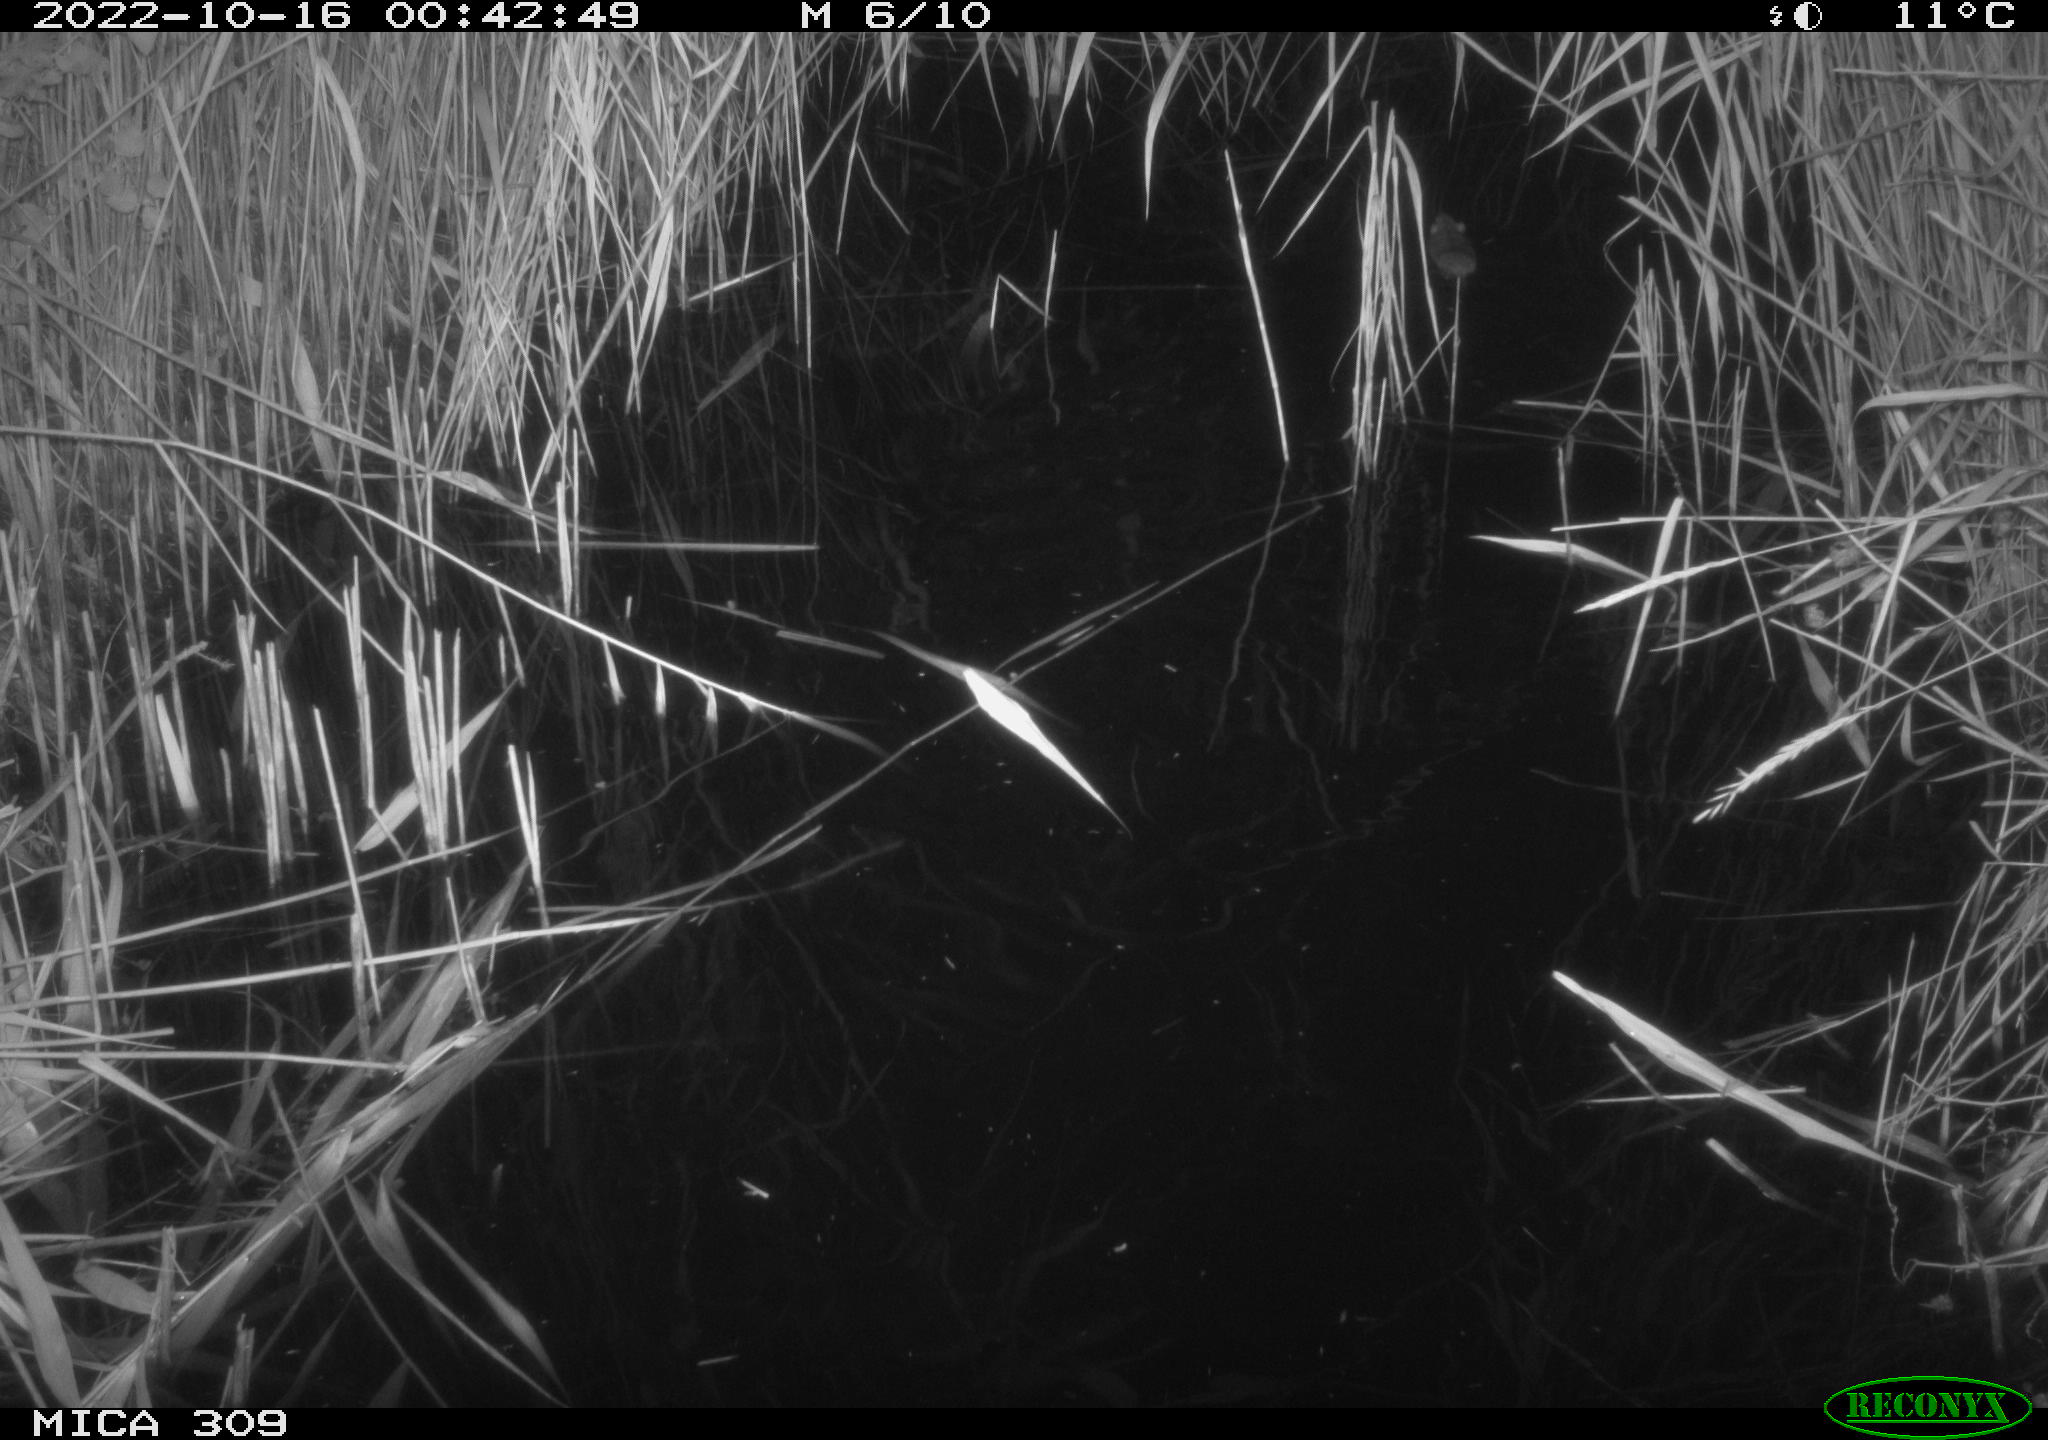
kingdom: Animalia
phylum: Chordata
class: Mammalia
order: Rodentia
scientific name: Rodentia
